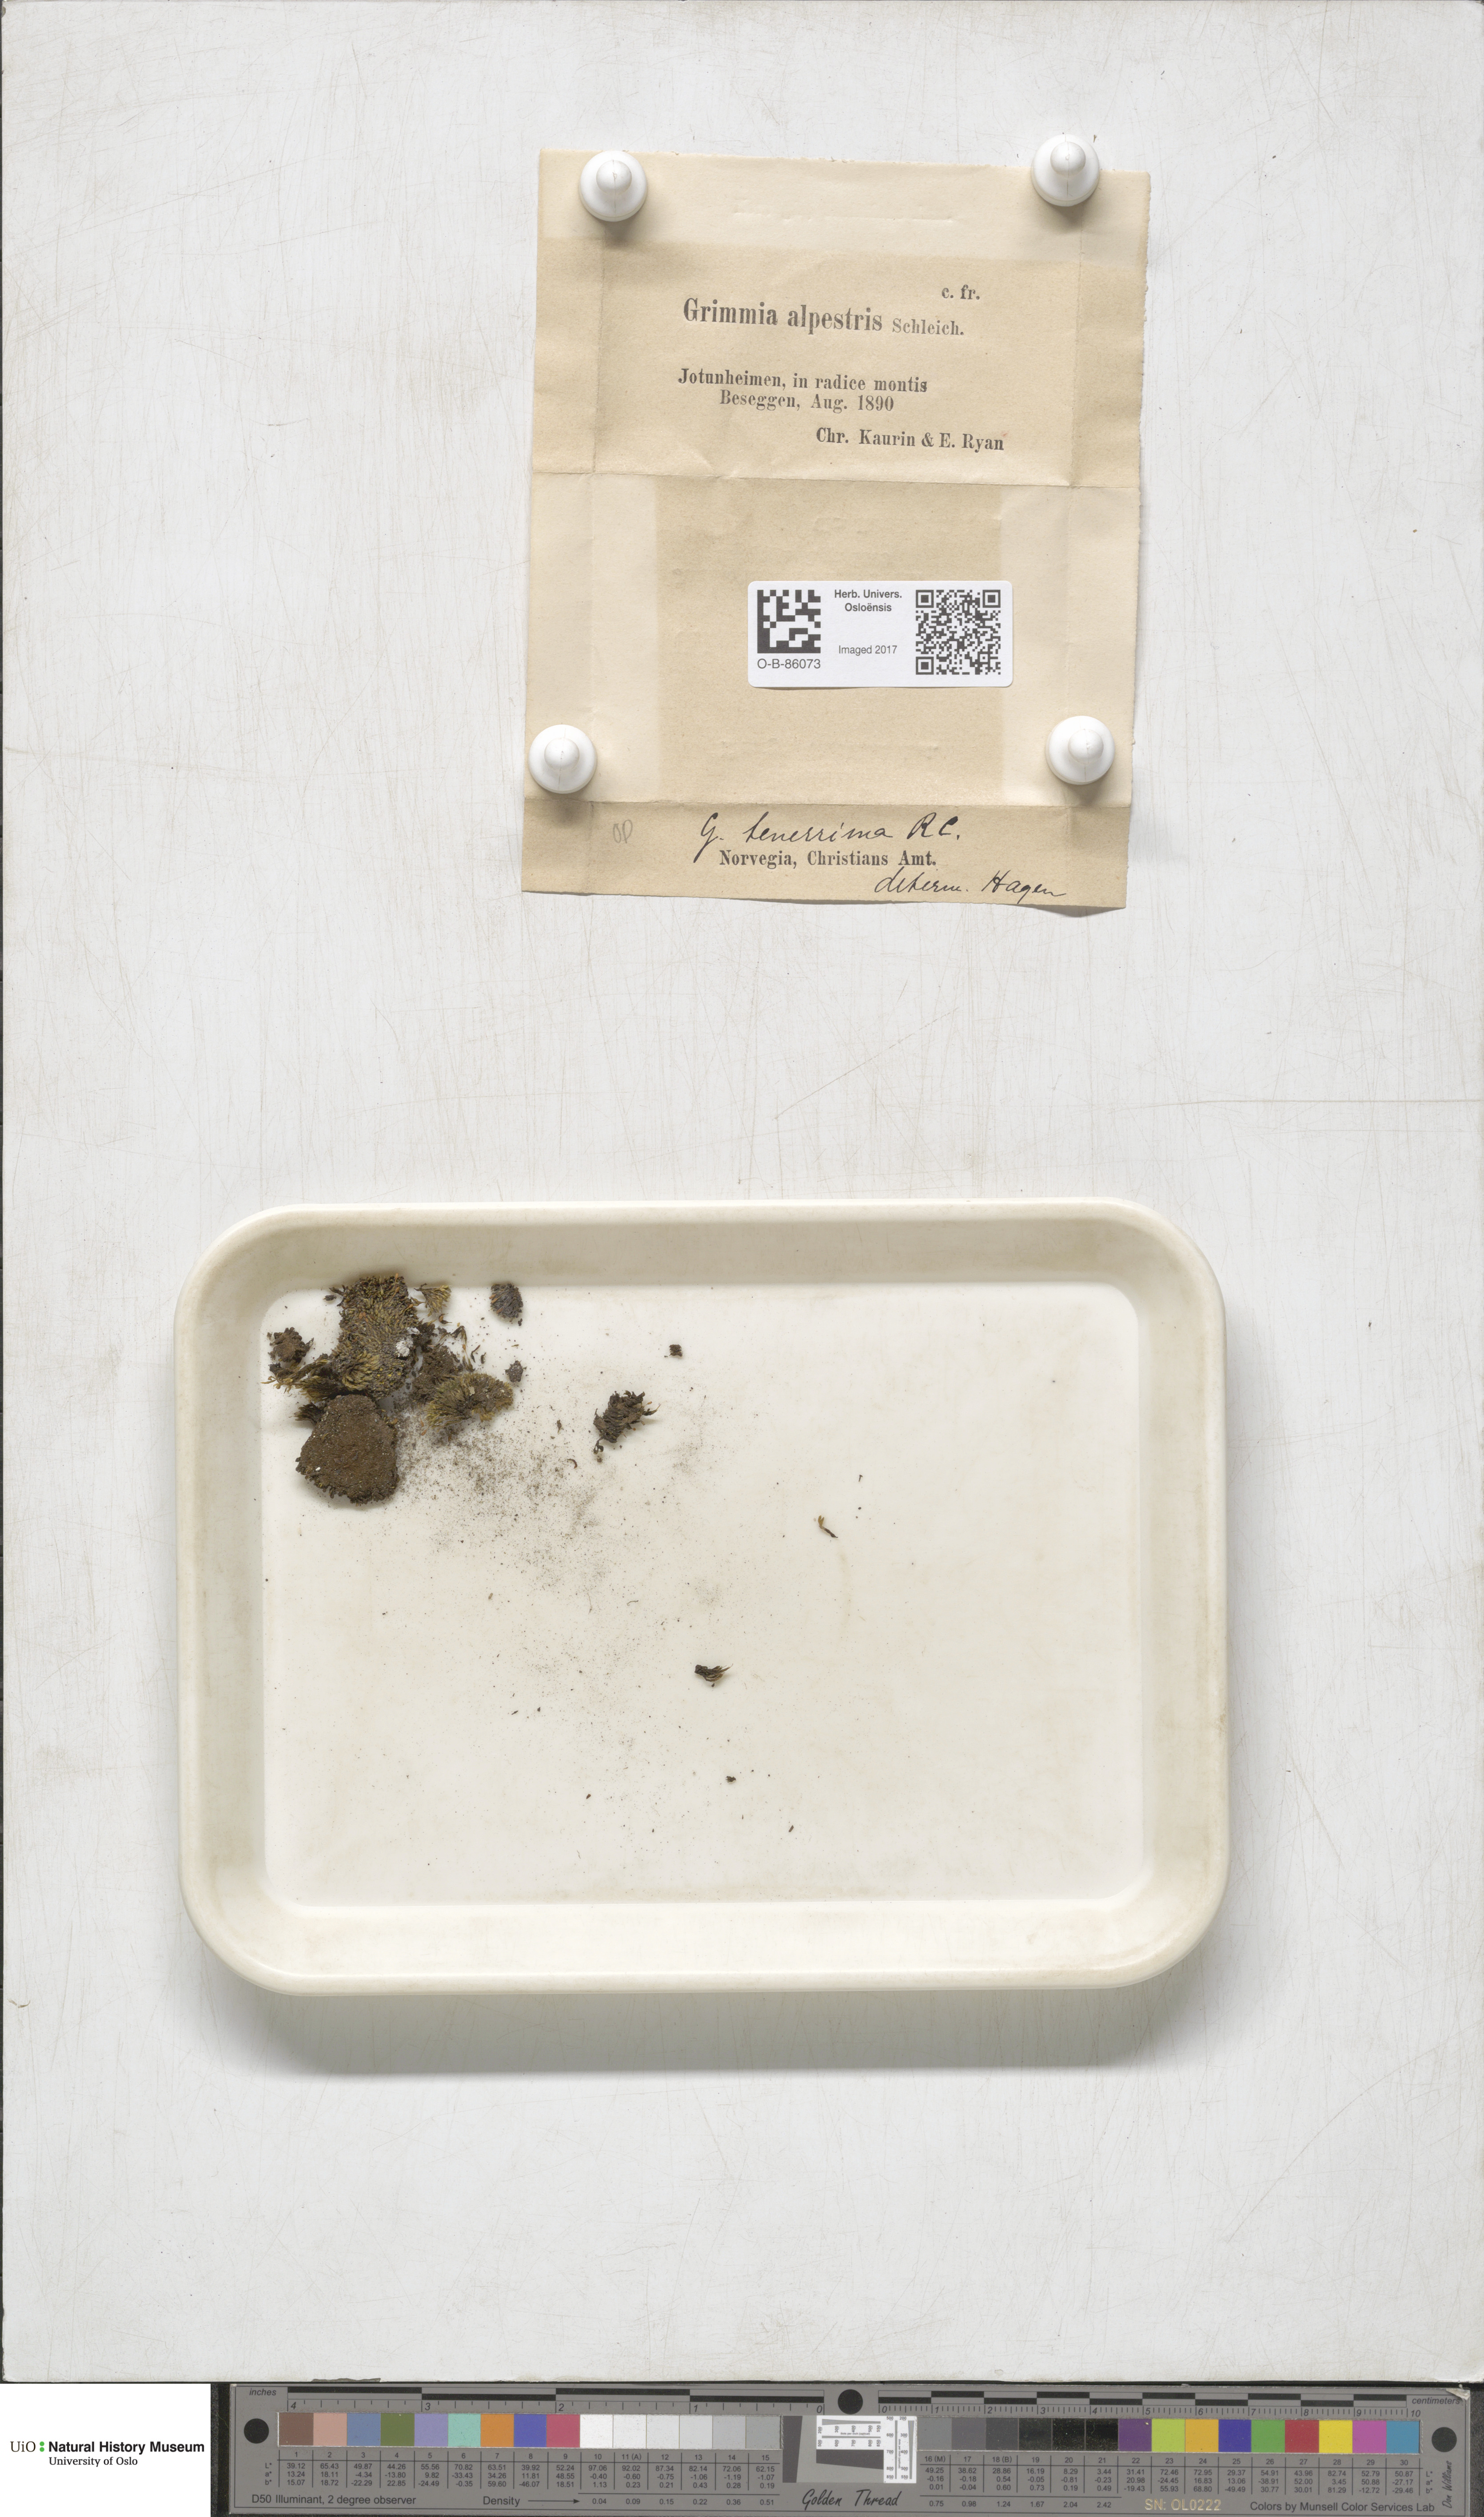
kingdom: Plantae
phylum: Bryophyta
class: Bryopsida
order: Grimmiales
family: Grimmiaceae
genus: Grimmia
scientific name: Grimmia alpestris
